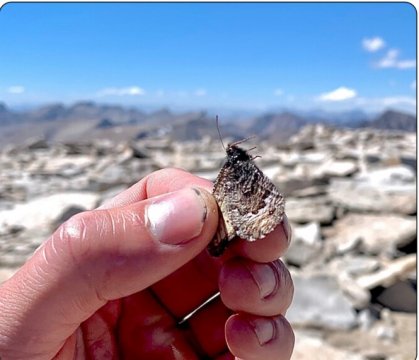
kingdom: Animalia
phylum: Arthropoda
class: Insecta
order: Lepidoptera
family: Nymphalidae
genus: Oeneis
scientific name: Oeneis chryxus
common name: Chryxus Arctic
